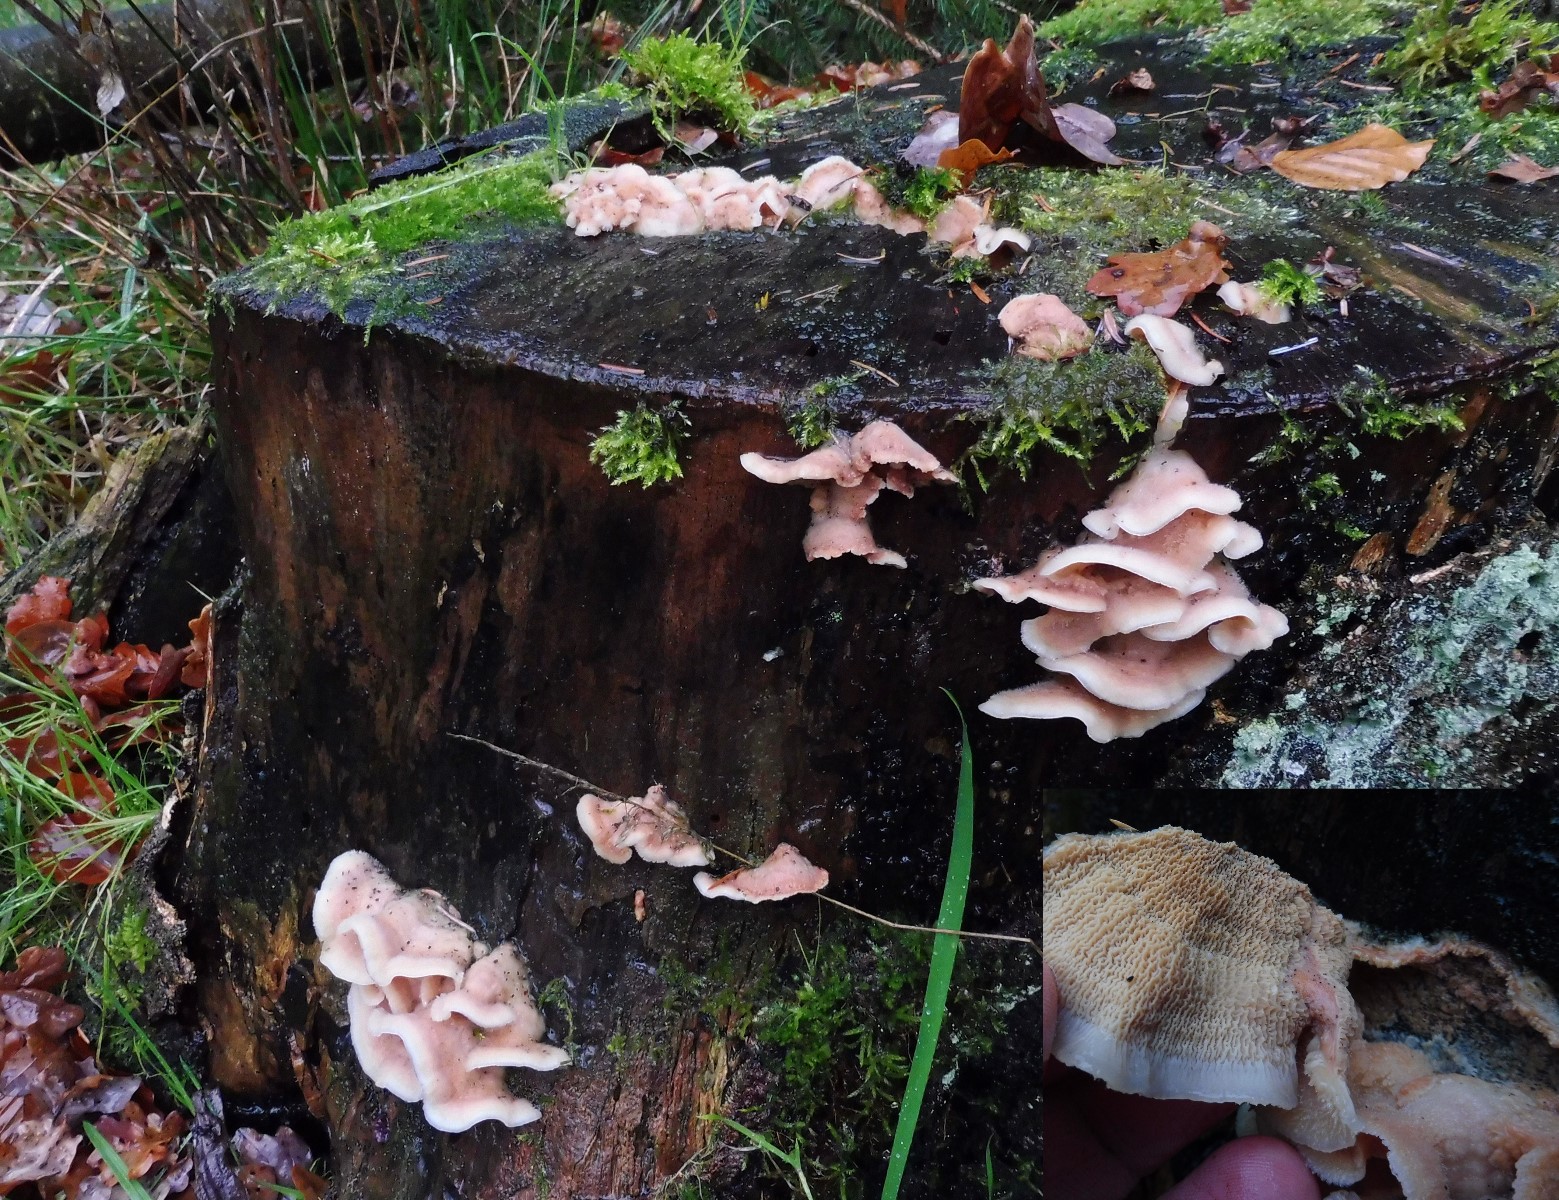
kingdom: Fungi
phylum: Basidiomycota
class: Agaricomycetes
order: Polyporales
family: Meruliaceae
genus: Phlebia
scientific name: Phlebia tremellosa
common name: bævrende åresvamp
